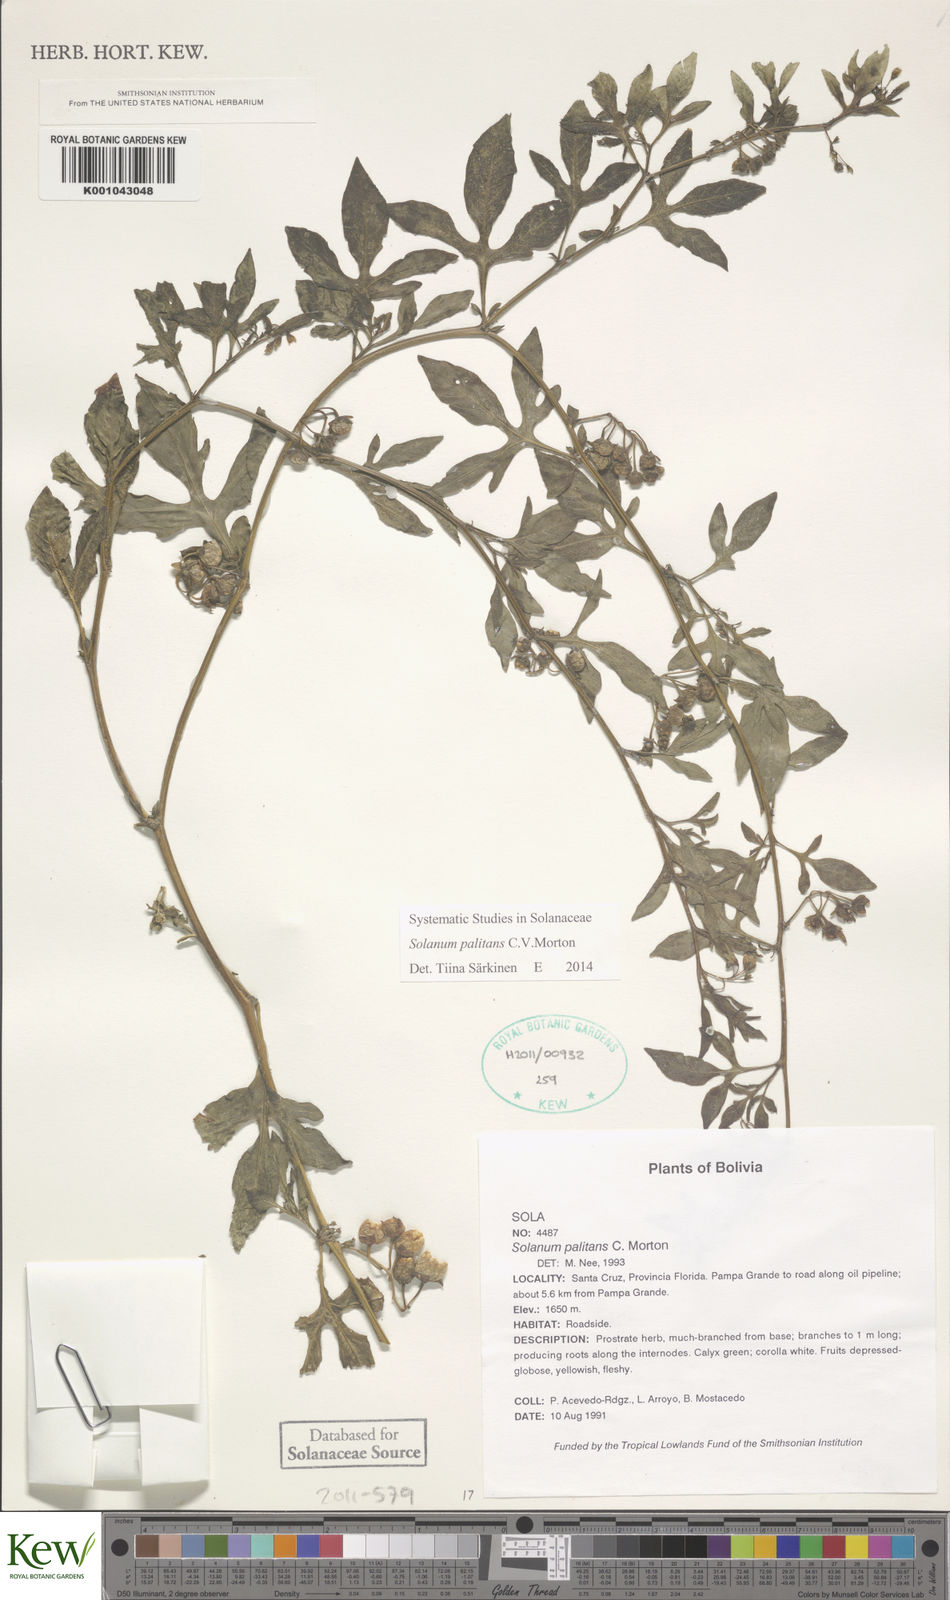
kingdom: Plantae
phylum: Tracheophyta
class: Magnoliopsida
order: Solanales
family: Solanaceae
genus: Solanum
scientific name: Solanum palitans
